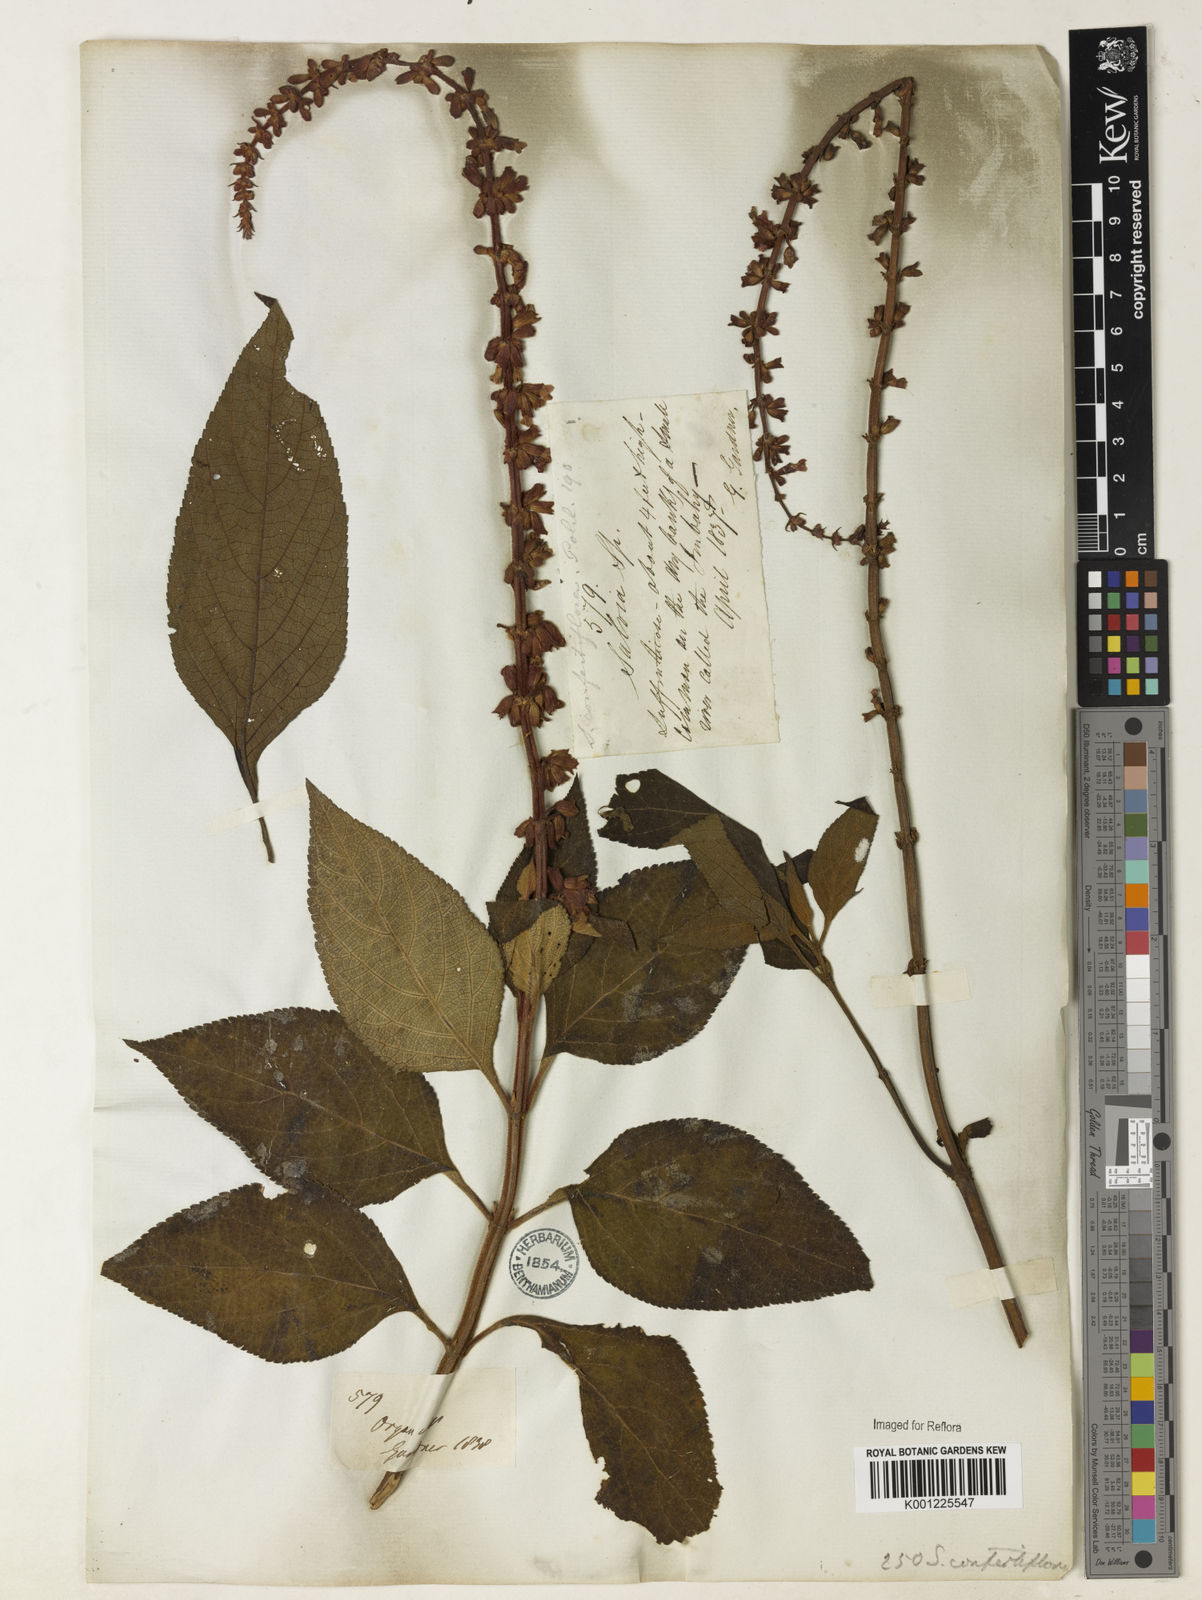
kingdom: Plantae
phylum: Tracheophyta
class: Magnoliopsida
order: Lamiales
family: Lamiaceae
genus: Salvia
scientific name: Salvia confertiflora
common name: Sabra-spike sage
